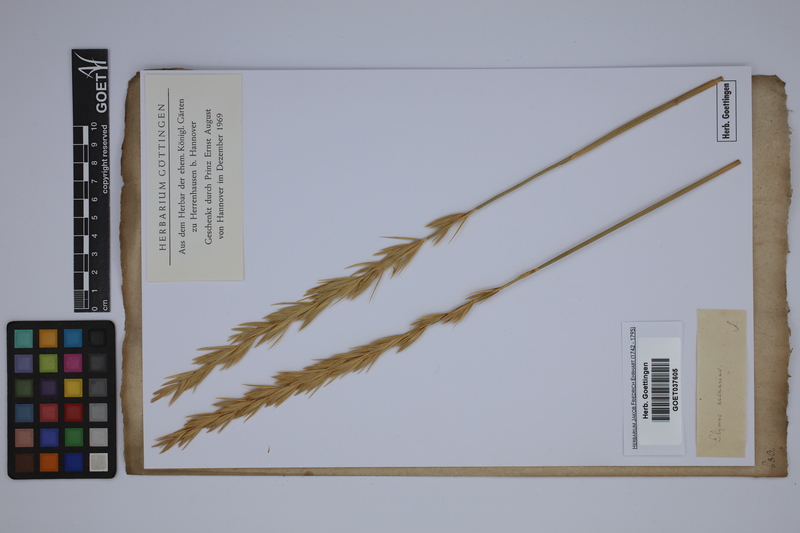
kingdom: Plantae
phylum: Tracheophyta
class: Liliopsida
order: Poales
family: Poaceae
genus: Leymus
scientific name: Leymus arenarius
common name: Lyme-grass
